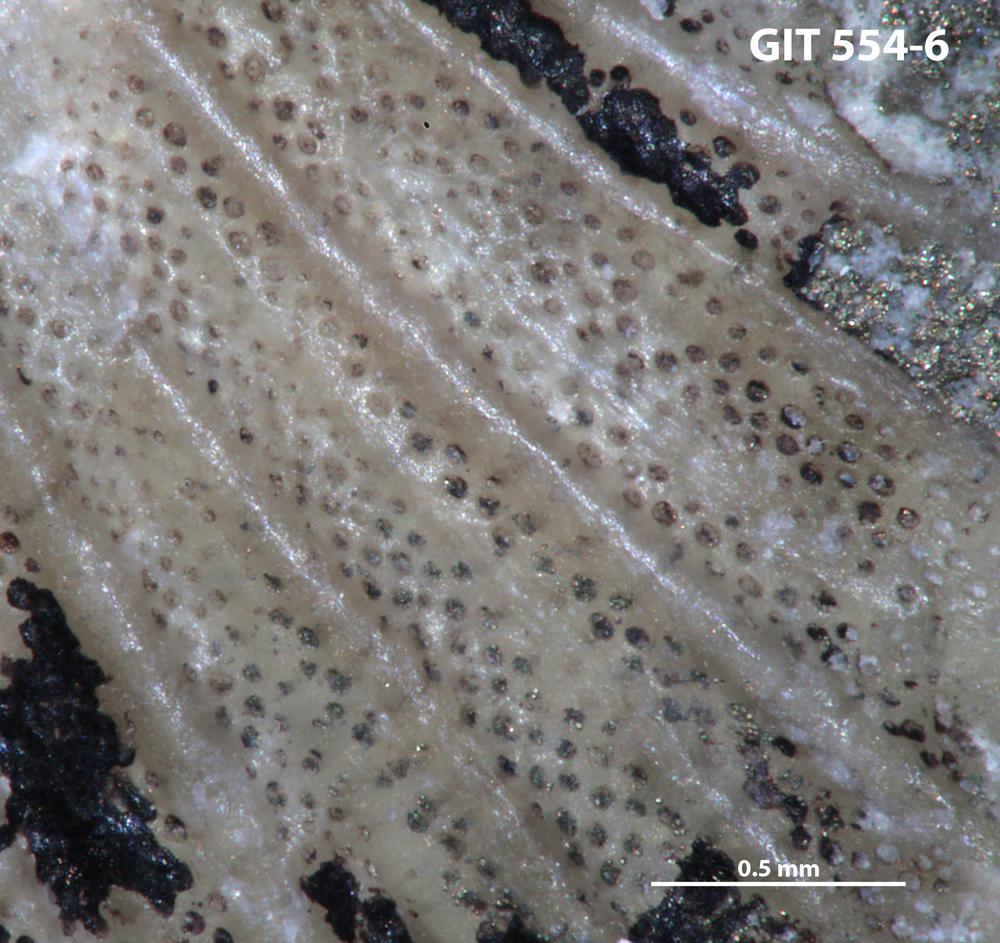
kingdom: Animalia
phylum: Brachiopoda
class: Rhynchonellata
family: Saukrodictyidae
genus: Saukrodictya
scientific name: Saukrodictya
